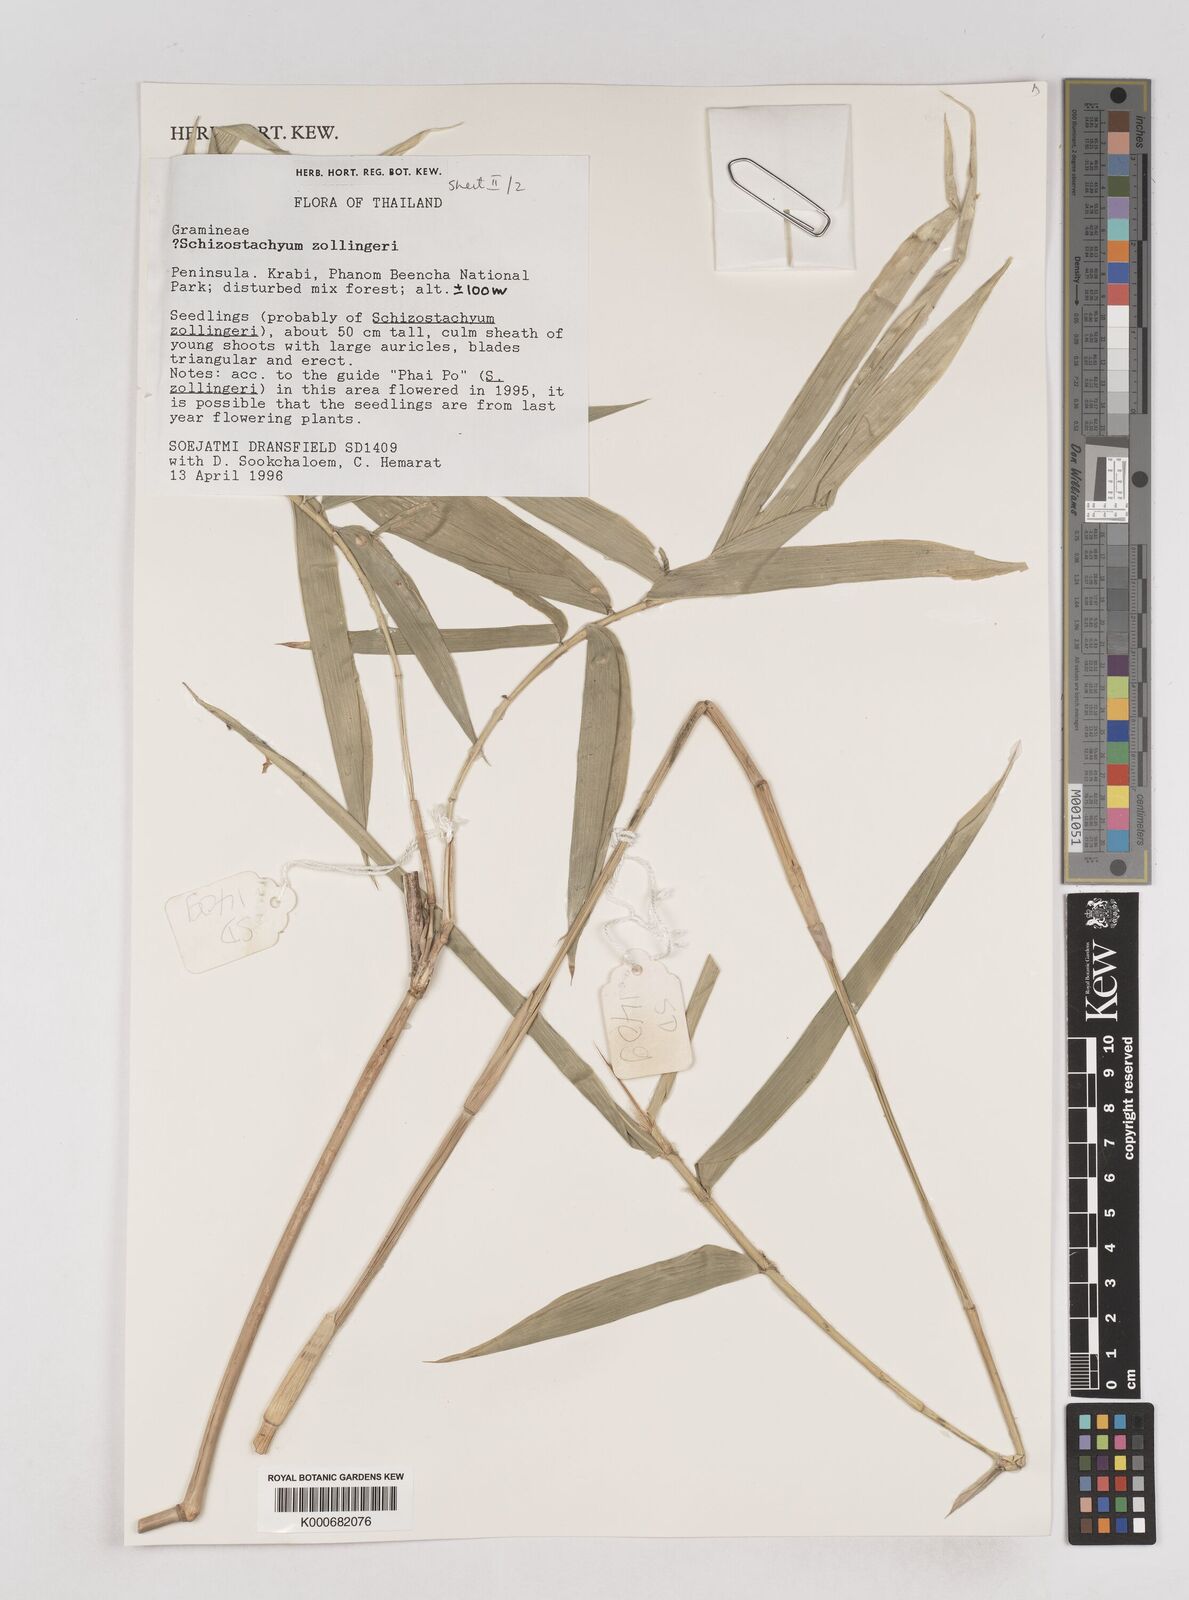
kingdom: Plantae
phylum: Tracheophyta
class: Liliopsida
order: Poales
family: Poaceae
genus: Schizostachyum
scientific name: Schizostachyum zollingeri
